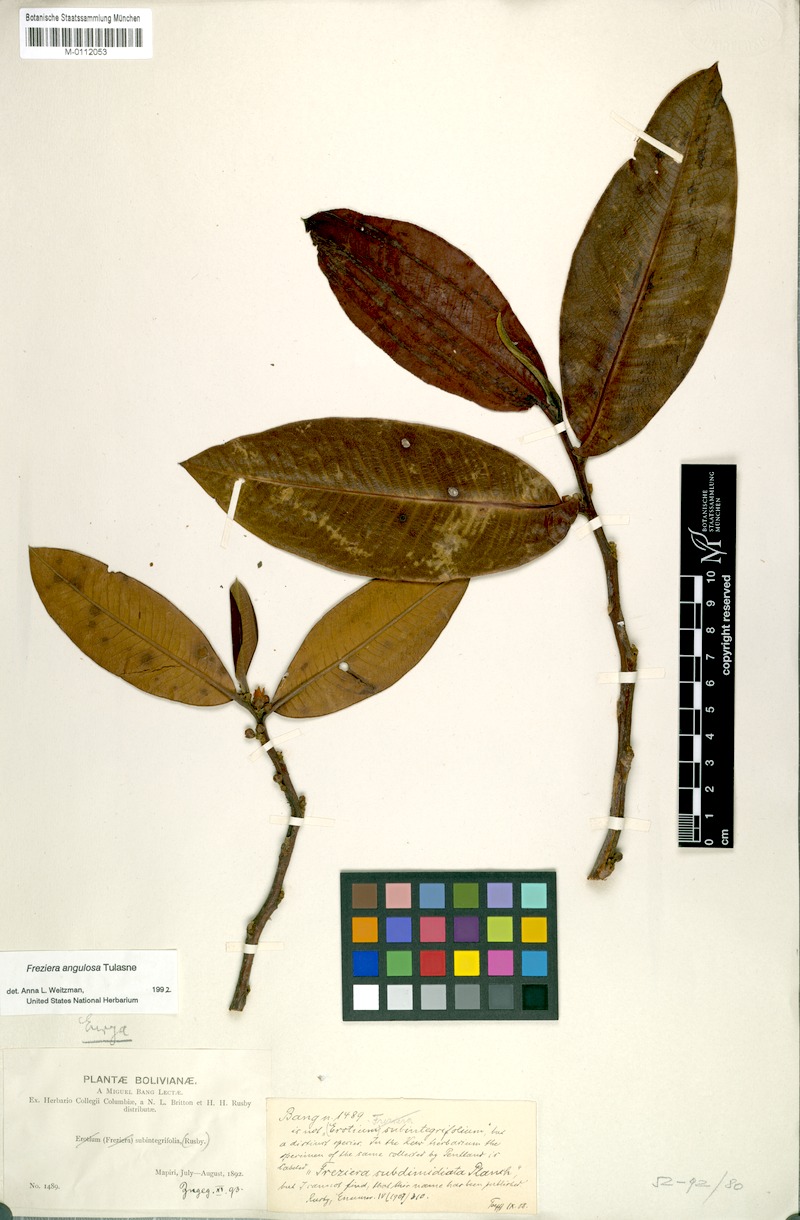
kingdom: Plantae
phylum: Tracheophyta
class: Magnoliopsida
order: Ericales
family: Pentaphylacaceae
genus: Freziera
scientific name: Freziera subintegrifolia
